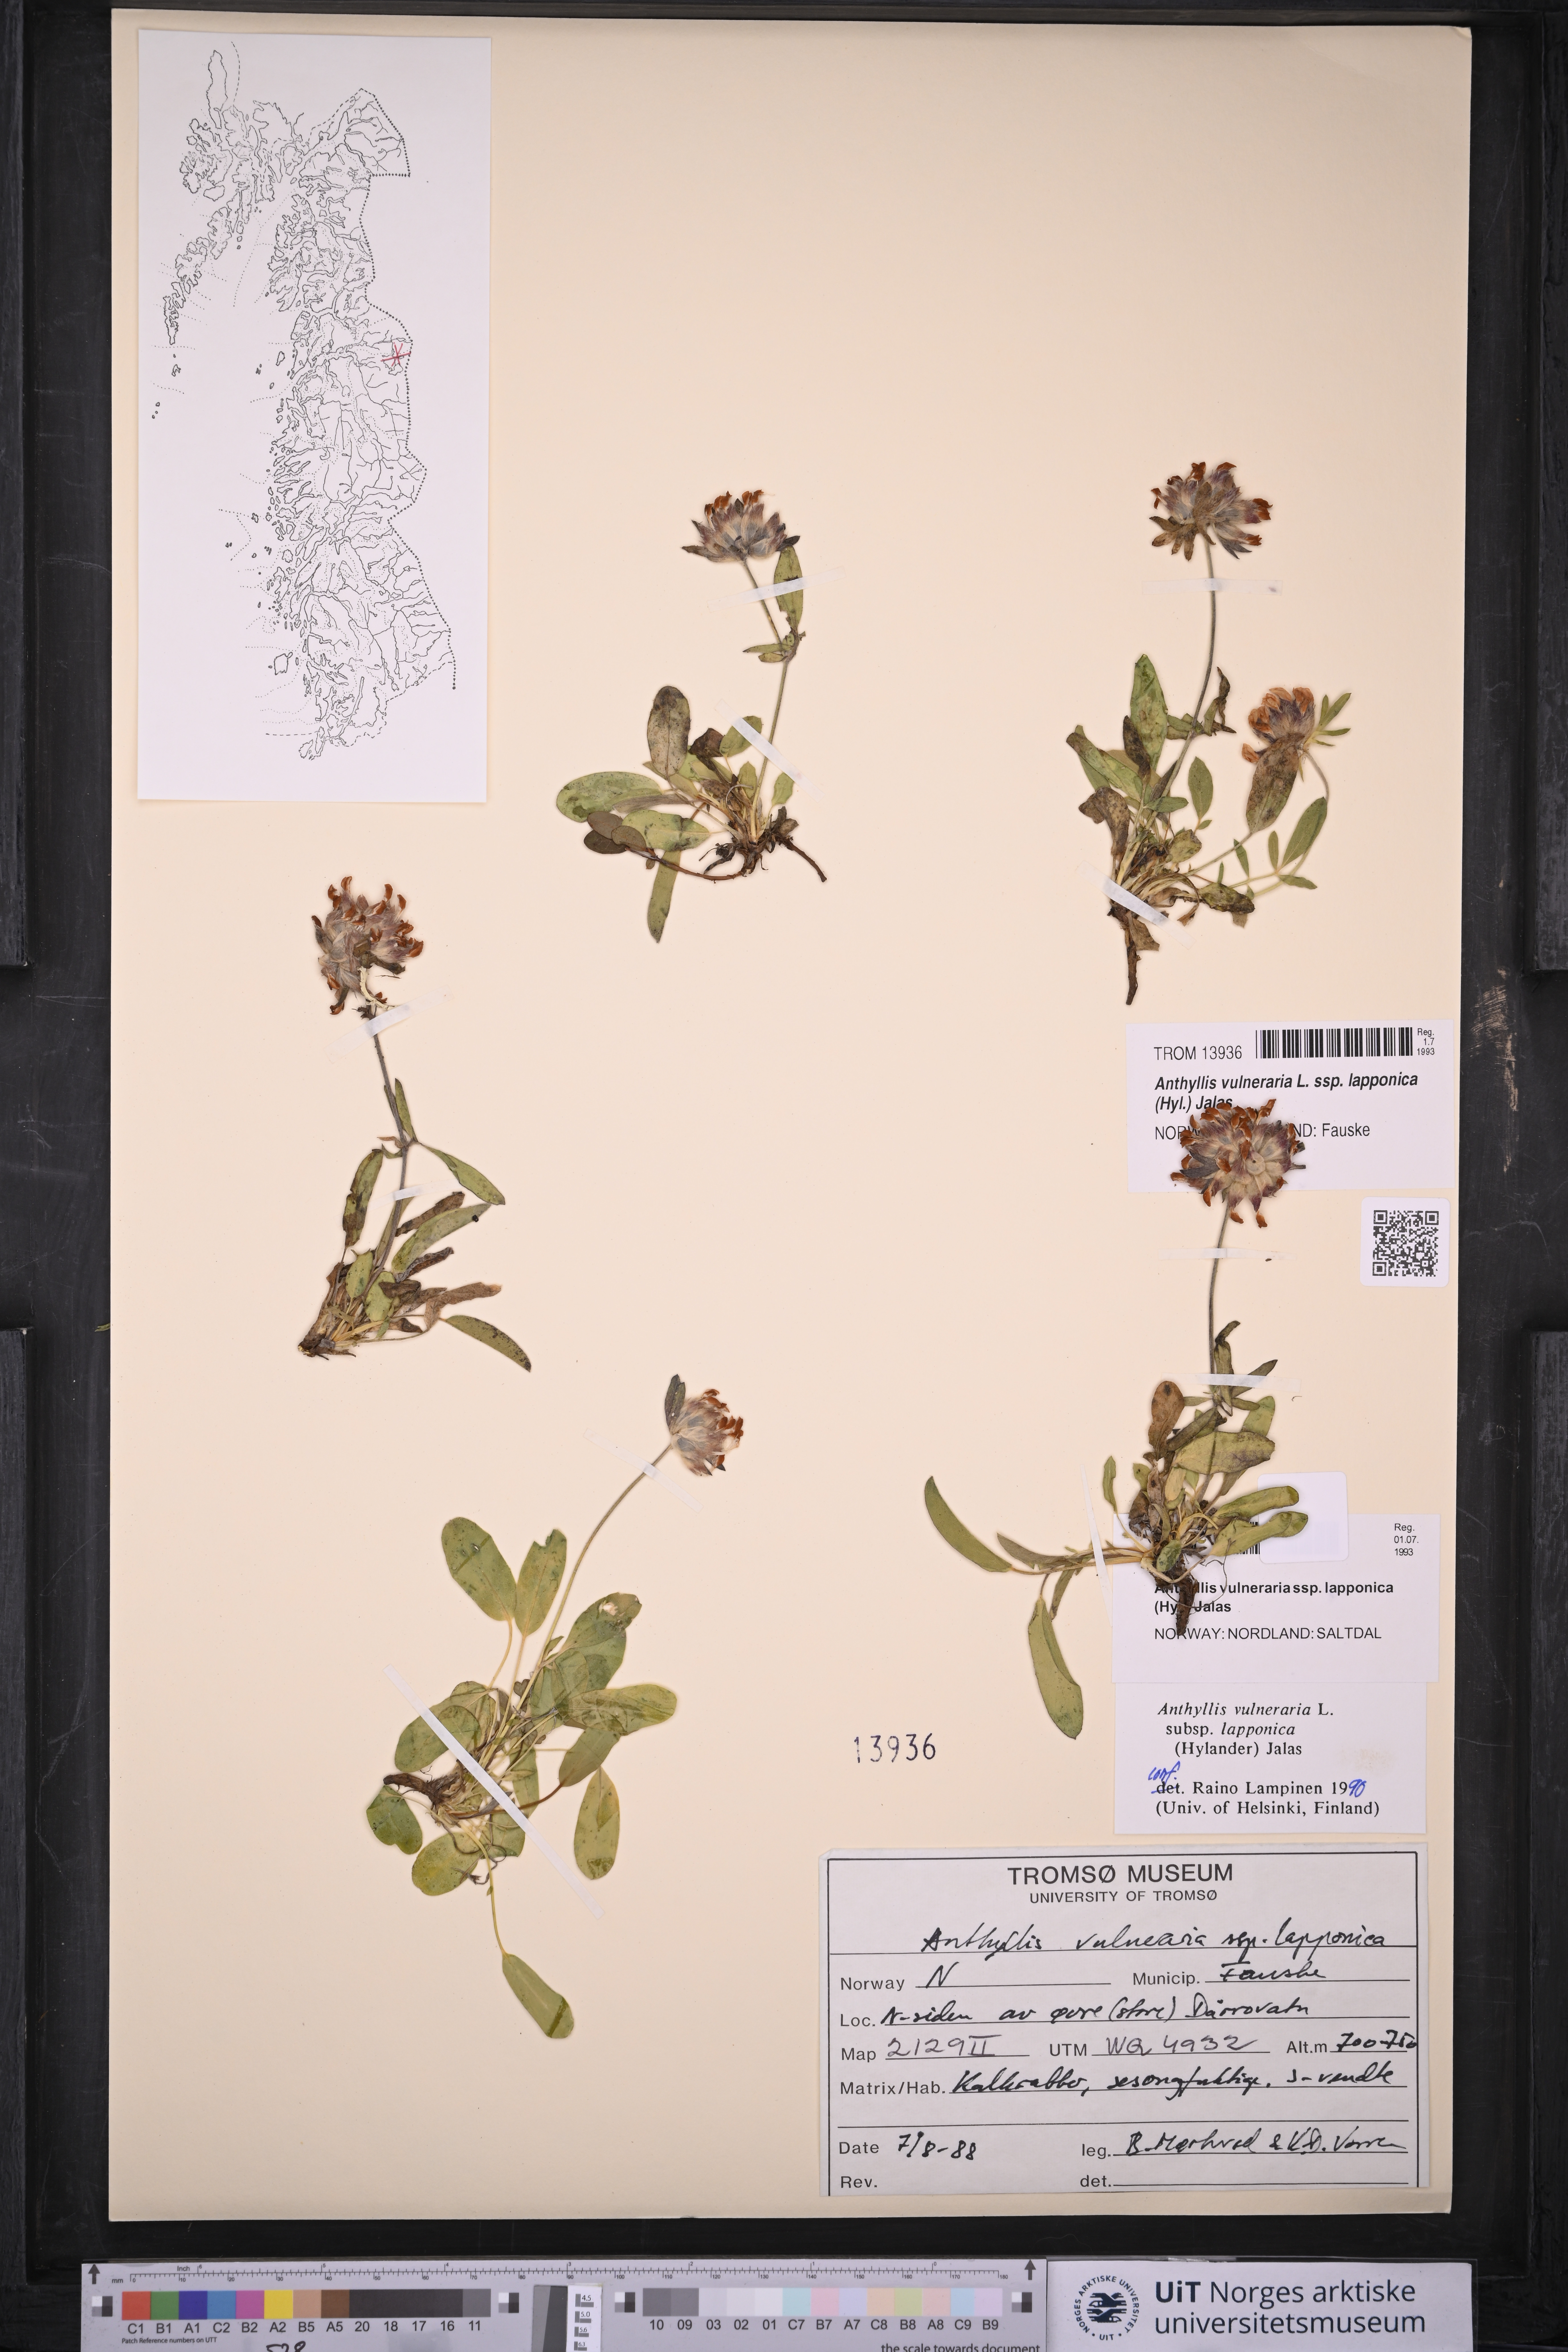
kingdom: Plantae
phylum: Tracheophyta
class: Magnoliopsida
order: Fabales
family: Fabaceae
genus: Anthyllis
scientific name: Anthyllis vulneraria
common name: Kidney vetch
